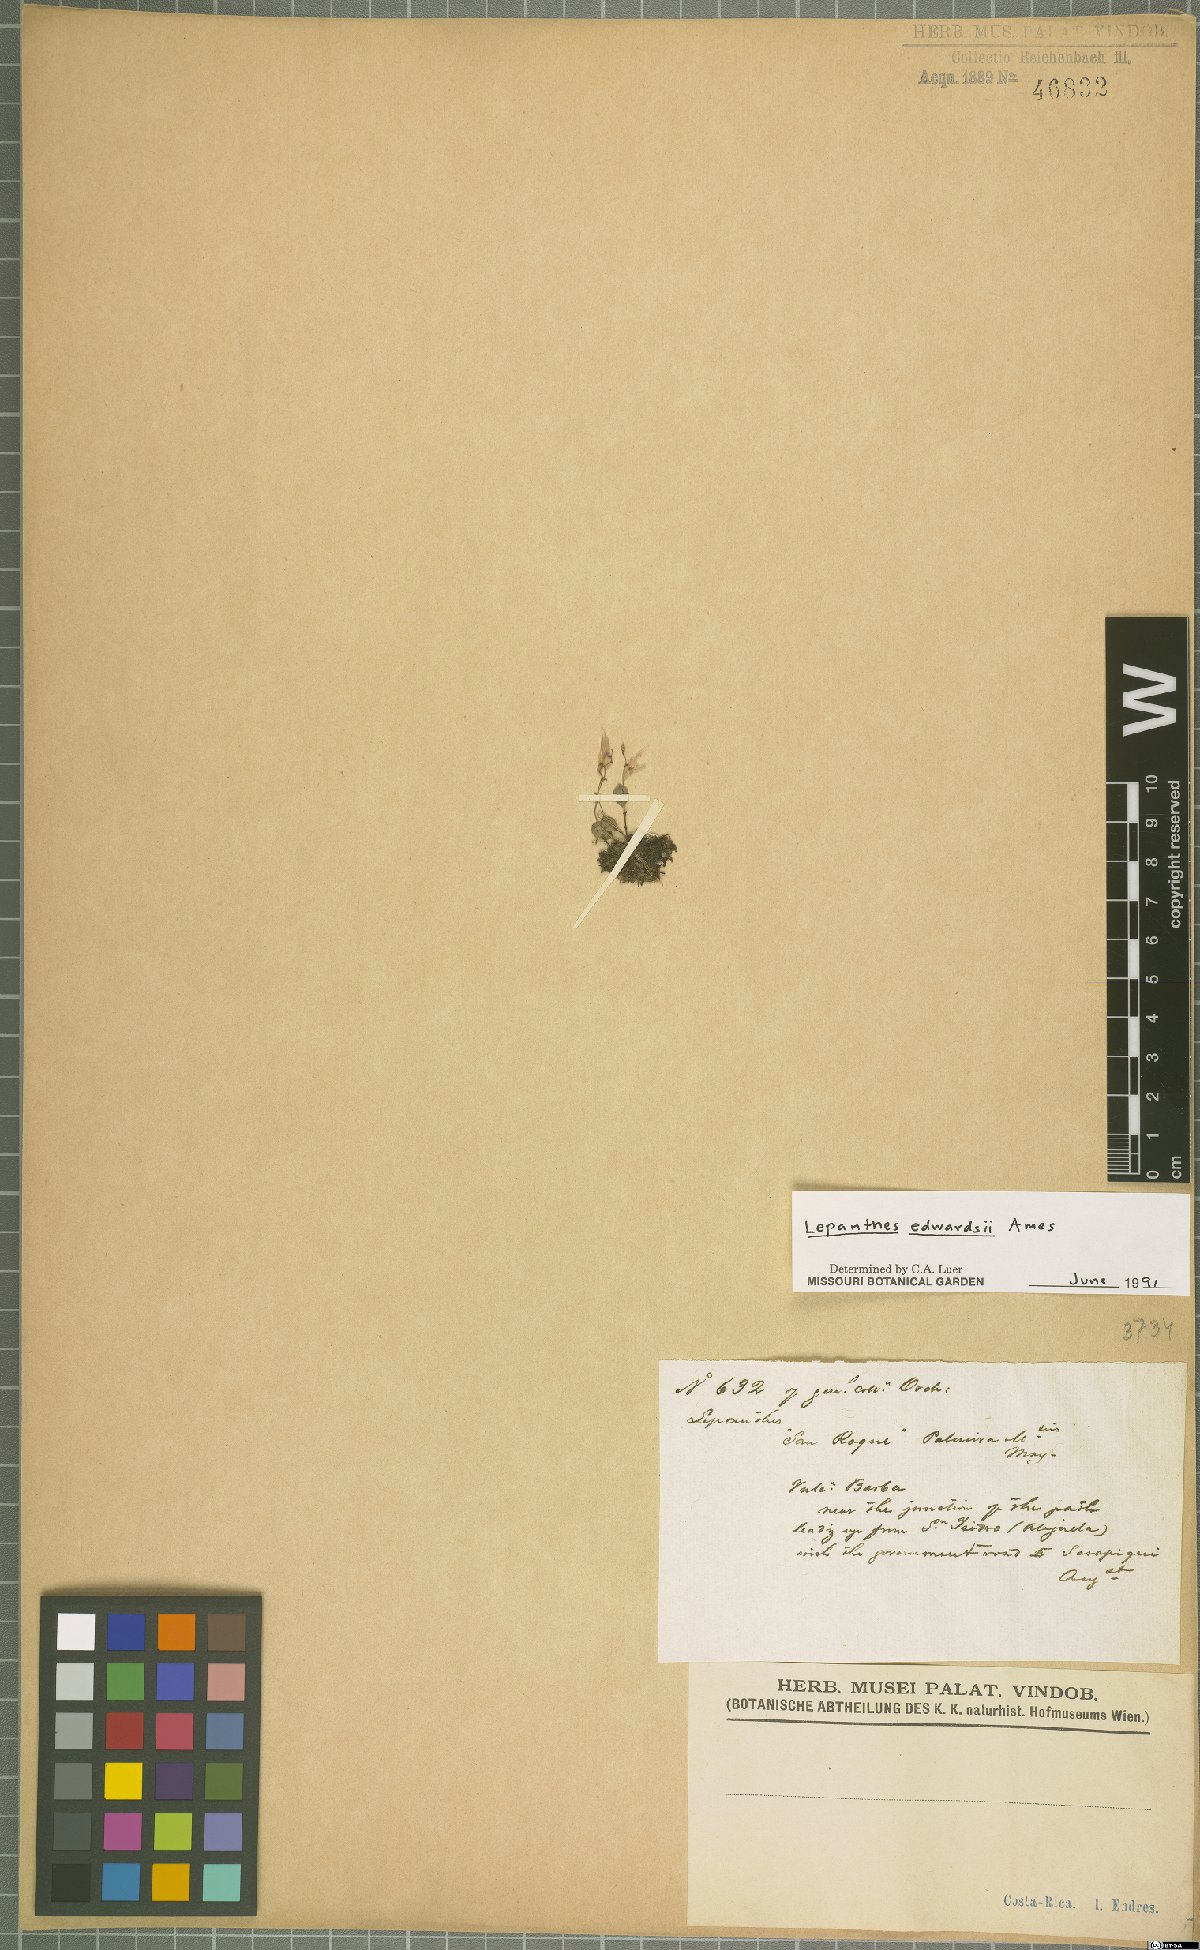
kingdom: Plantae
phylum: Tracheophyta
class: Liliopsida
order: Asparagales
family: Orchidaceae
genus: Lepanthes
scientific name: Lepanthes edwardsii
